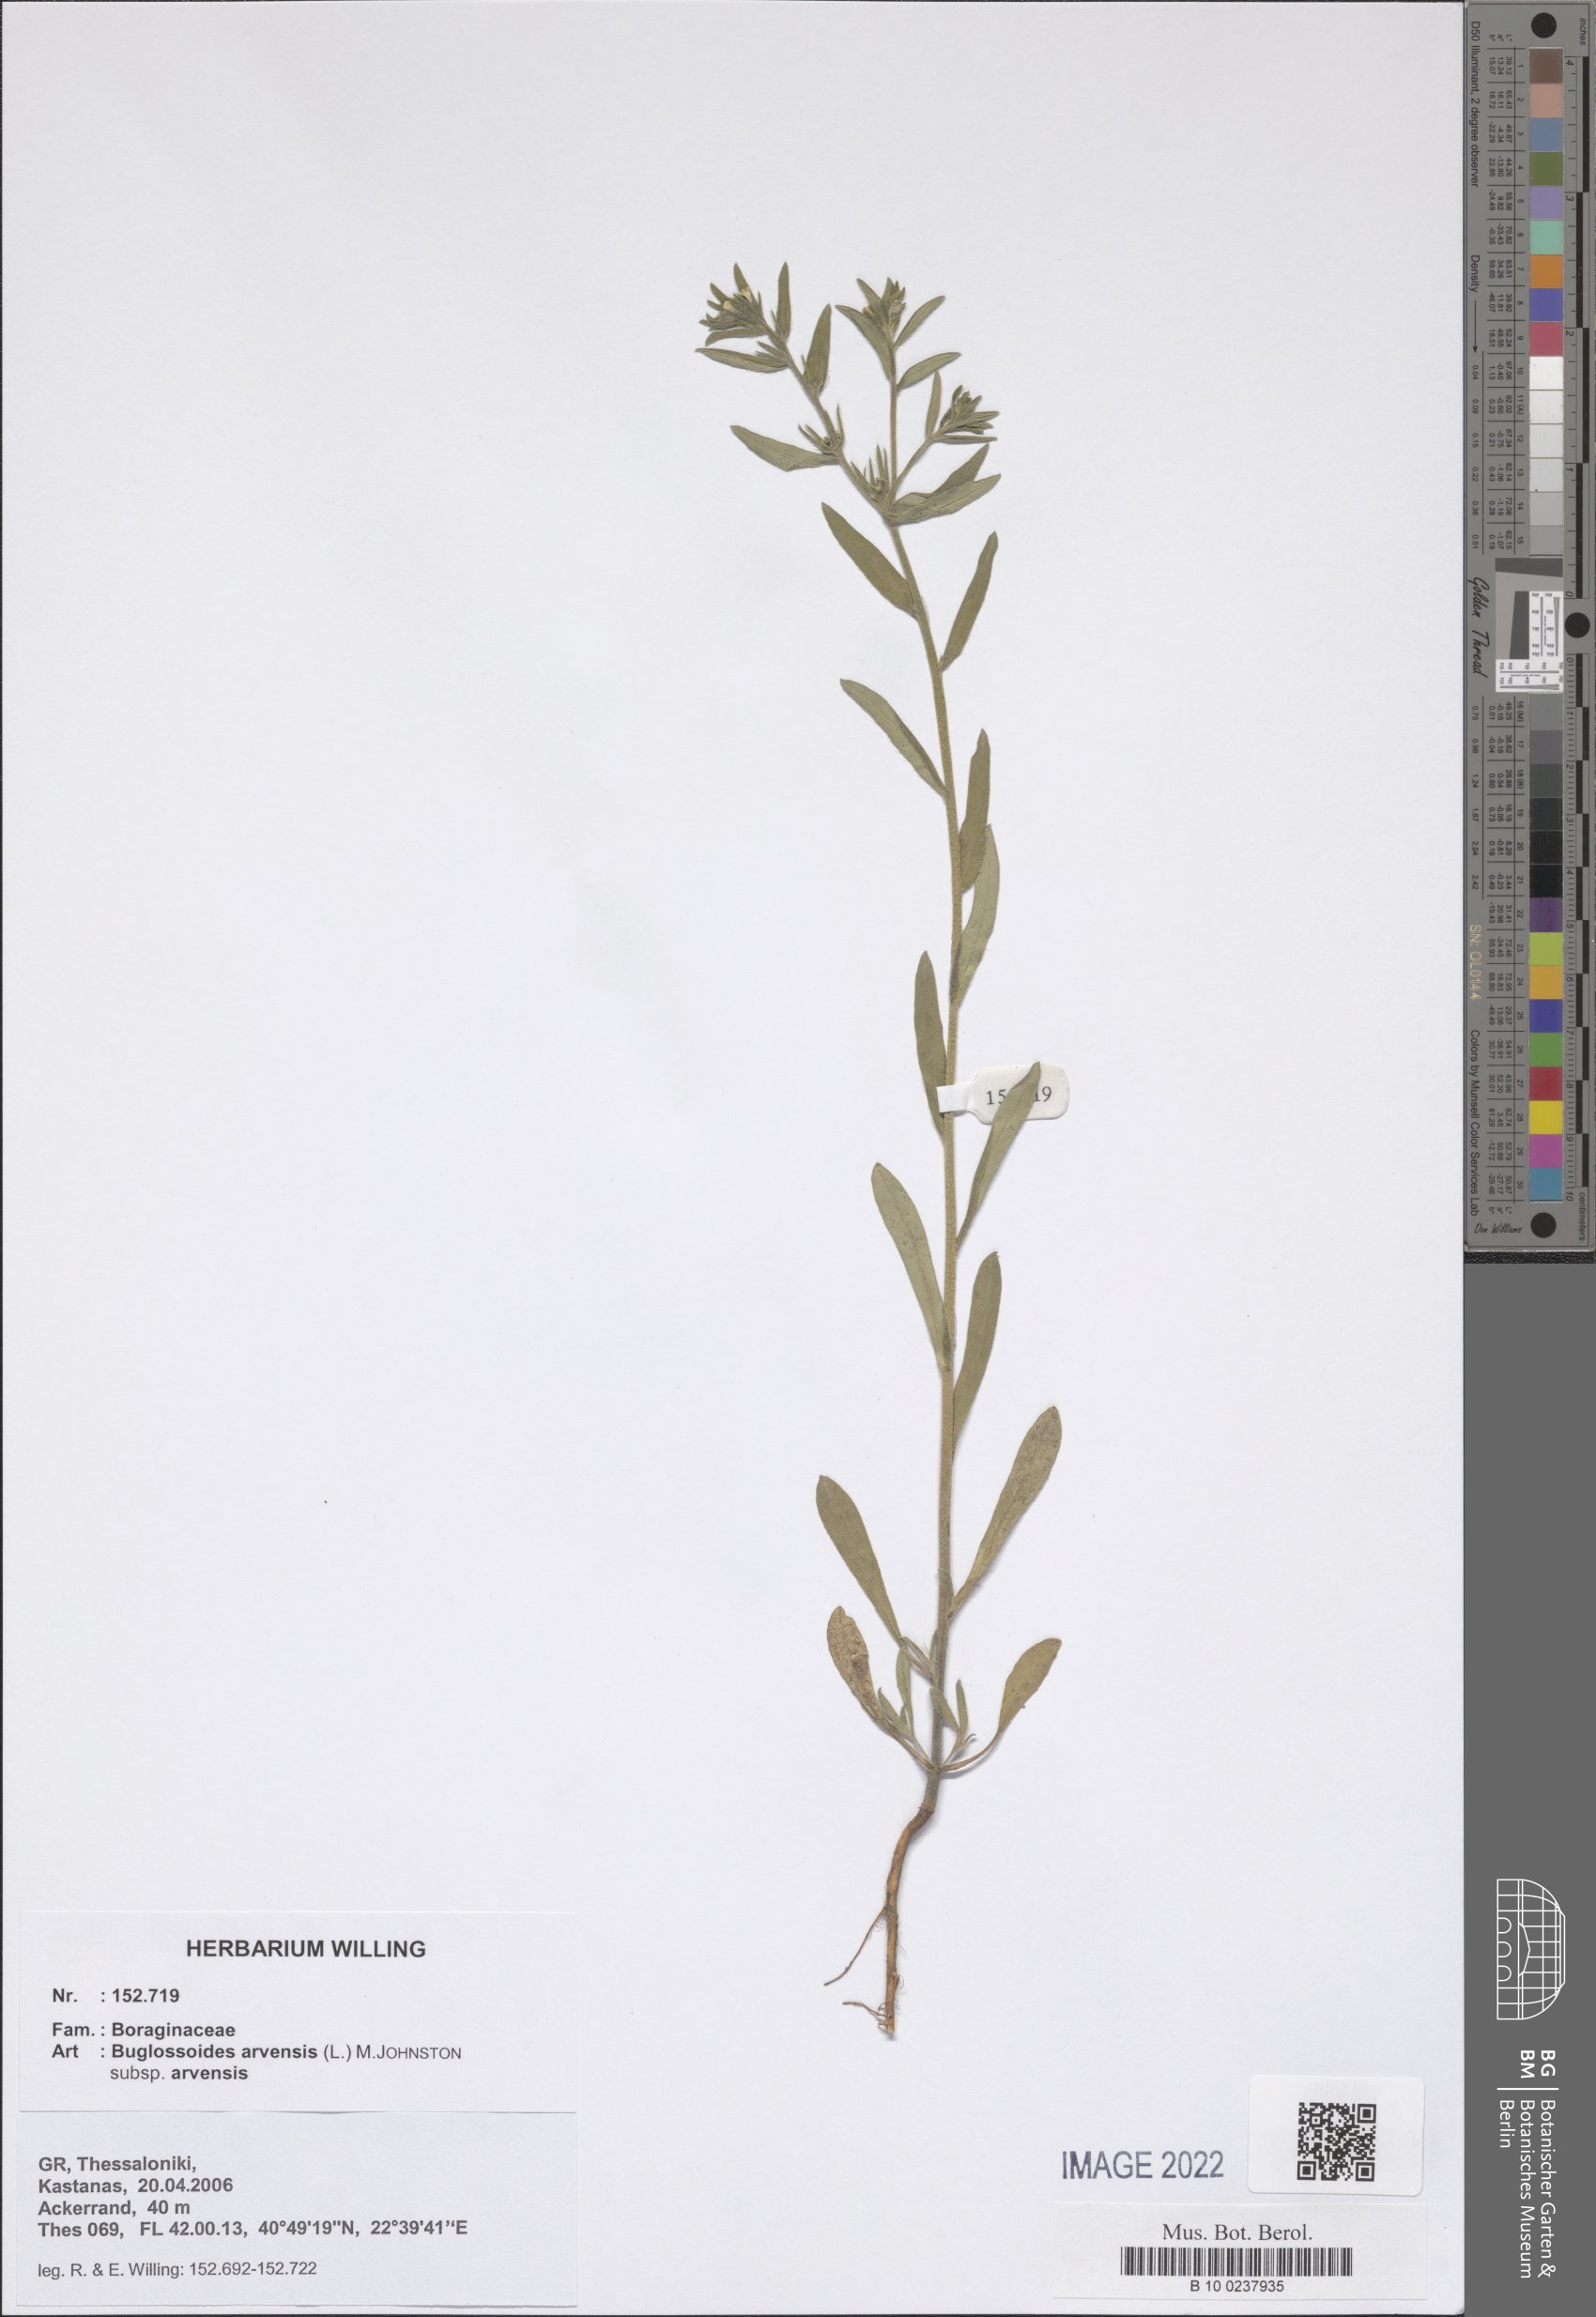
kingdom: Plantae
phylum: Tracheophyta
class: Magnoliopsida
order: Boraginales
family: Boraginaceae
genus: Buglossoides
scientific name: Buglossoides arvensis
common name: Corn gromwell
